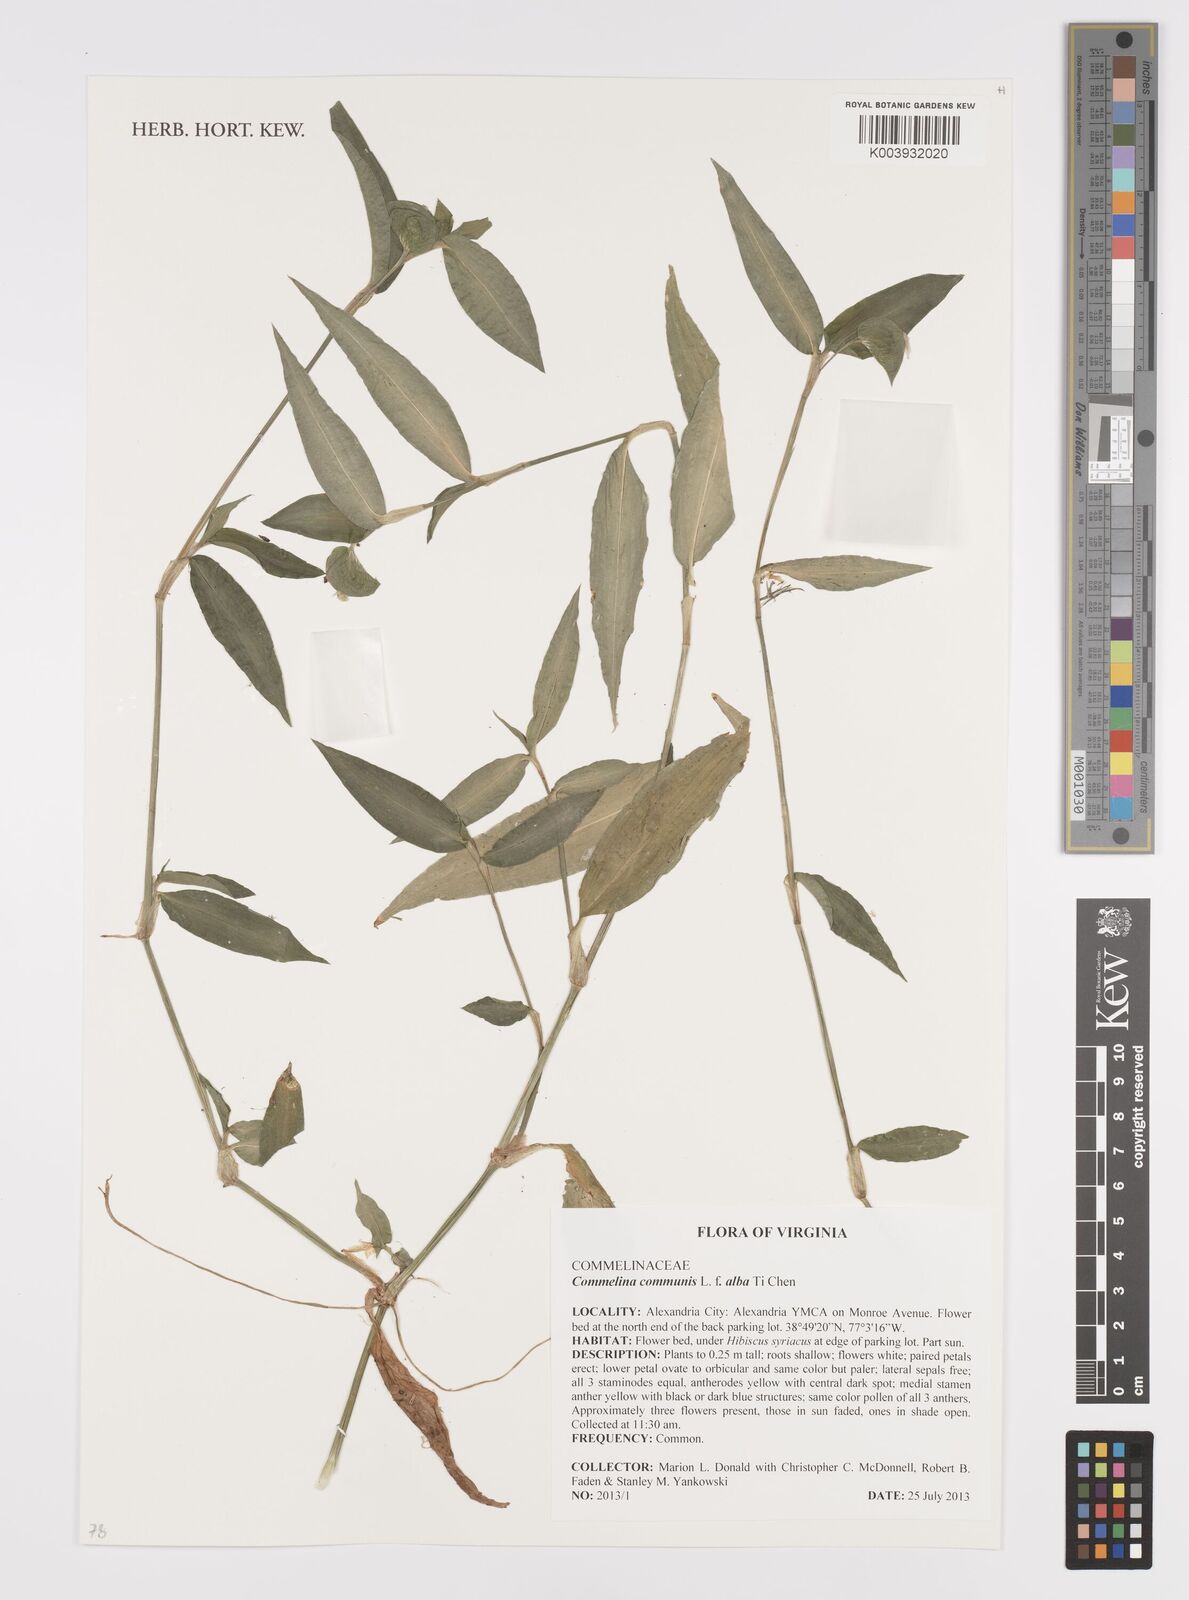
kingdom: Plantae
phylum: Tracheophyta
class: Liliopsida
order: Commelinales
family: Commelinaceae
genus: Commelina
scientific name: Commelina communis
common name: Asiatic dayflower
